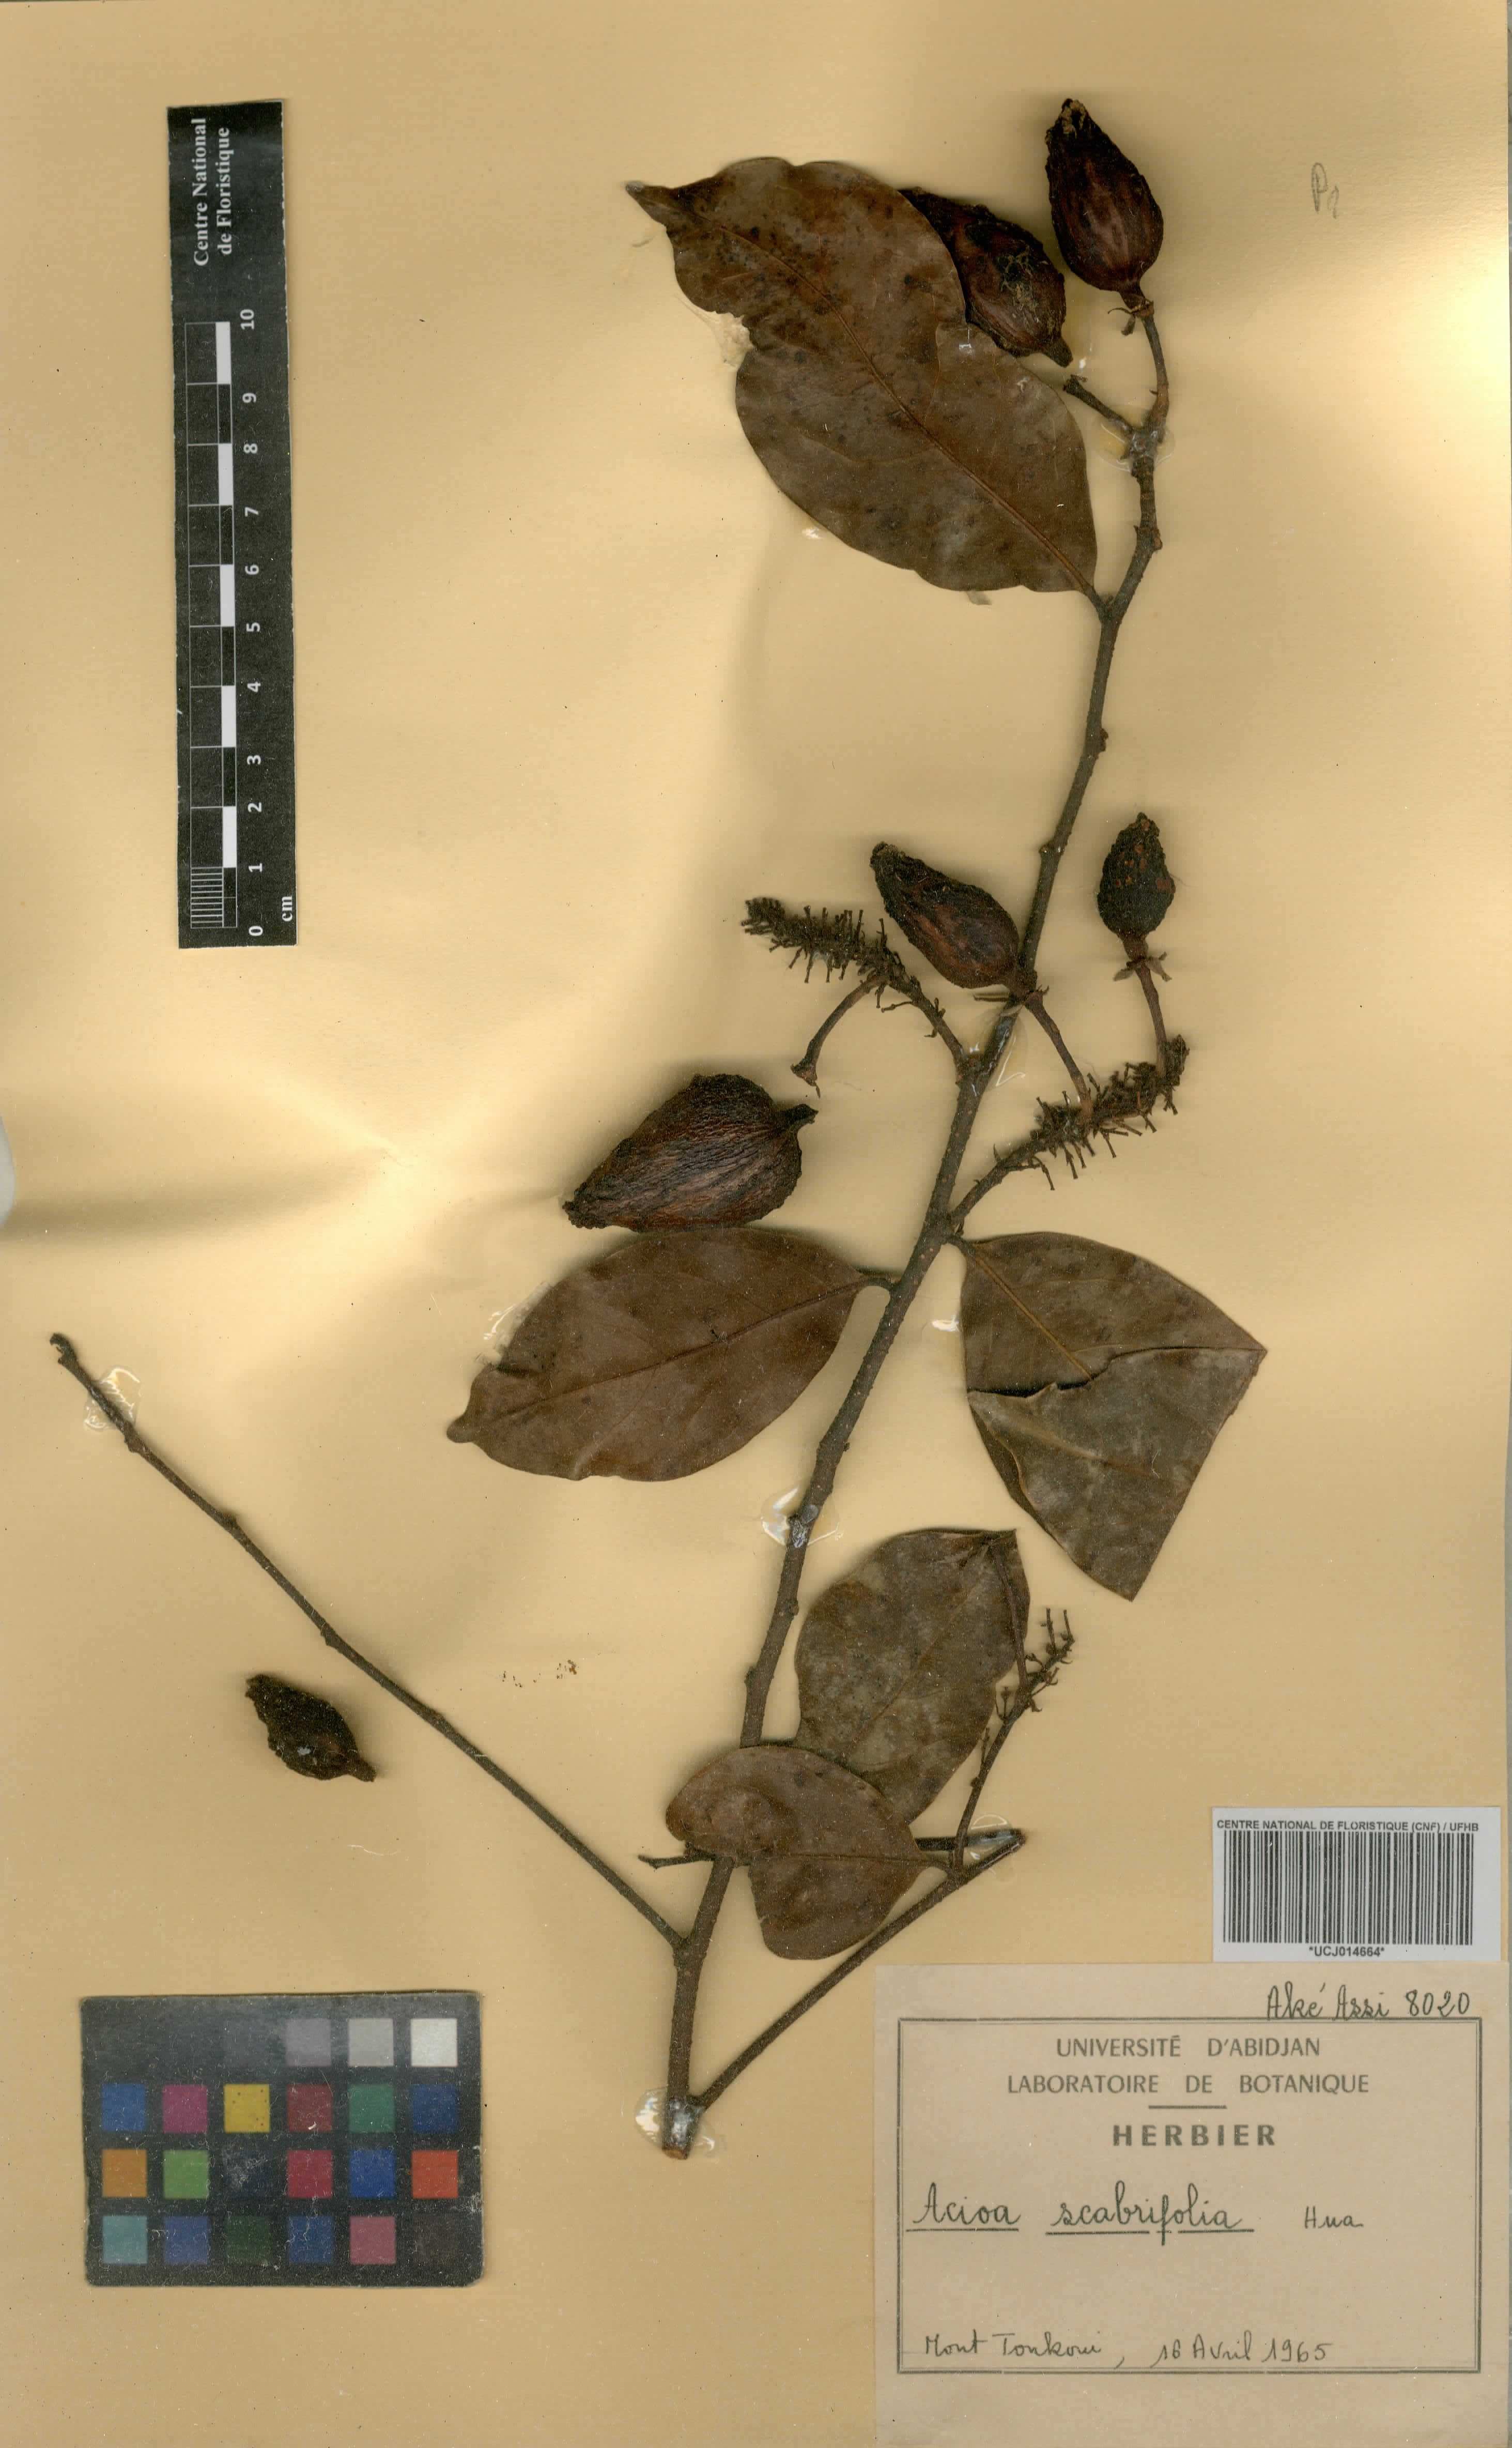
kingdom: Plantae
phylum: Tracheophyta
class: Magnoliopsida
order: Malpighiales
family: Chrysobalanaceae
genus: Dactyladenia
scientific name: Dactyladenia scabrifolia
